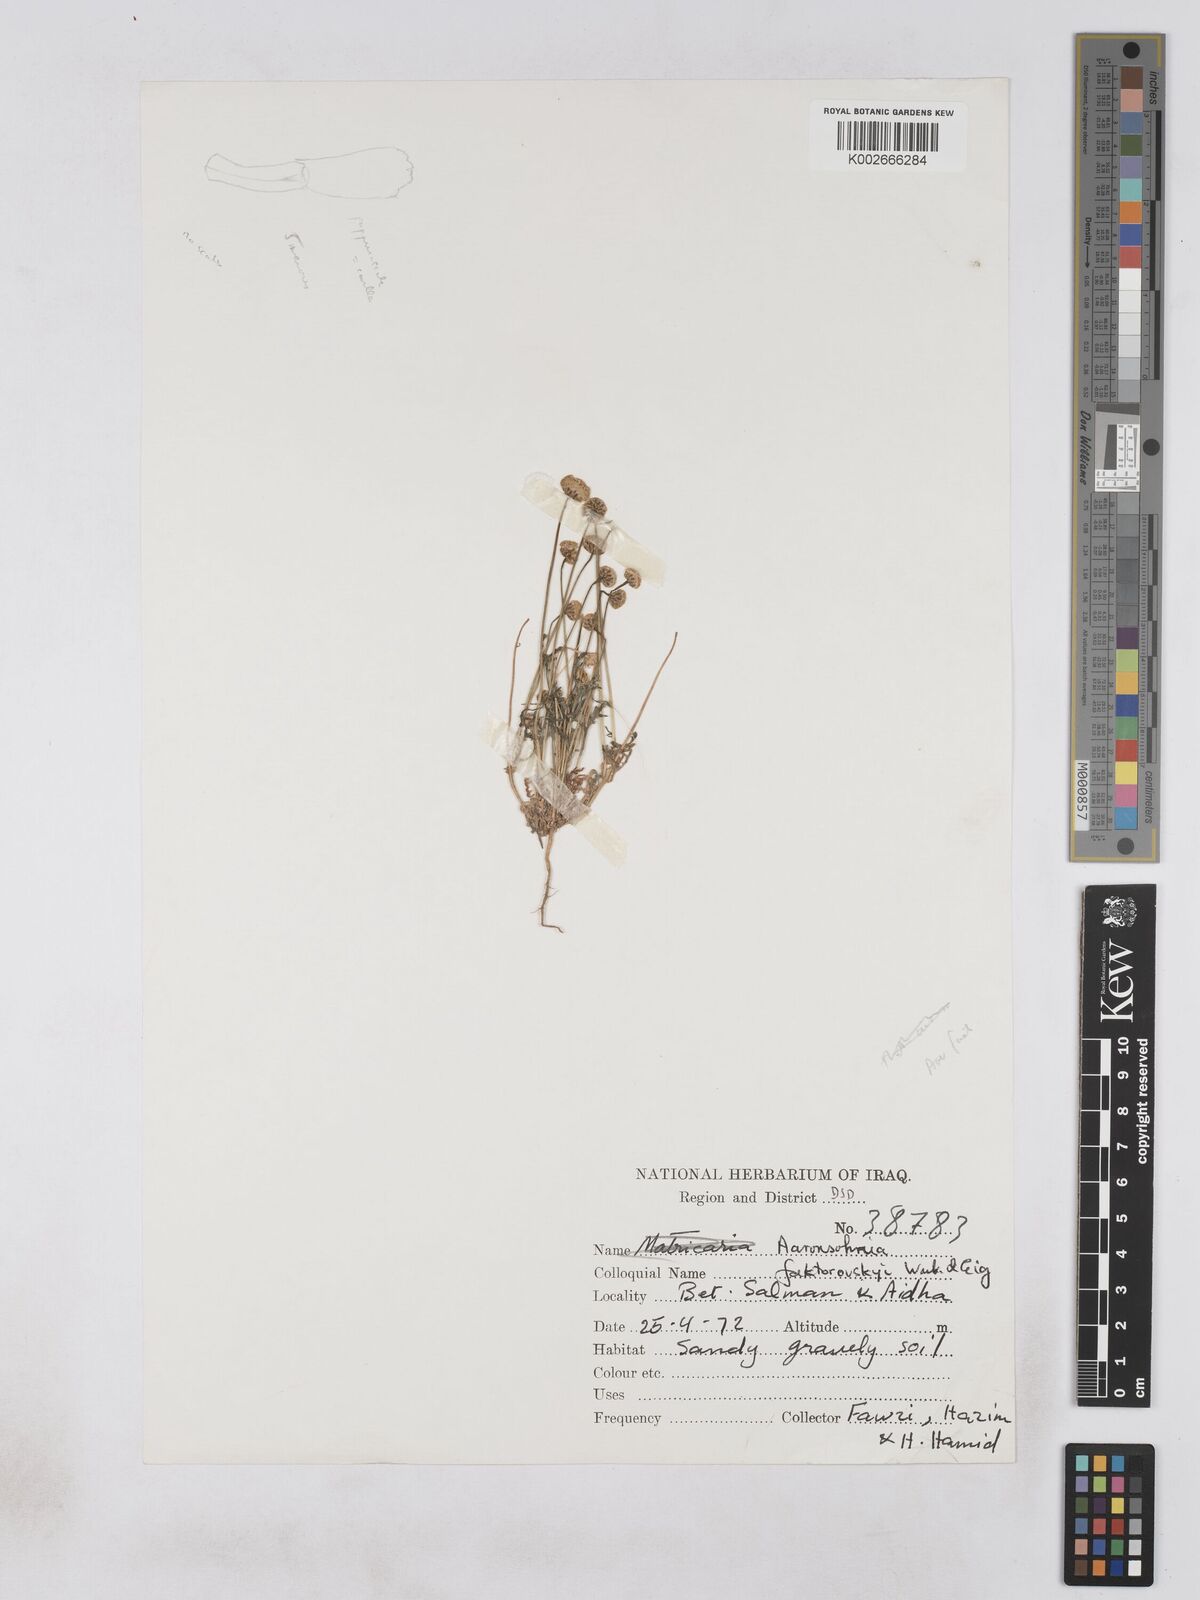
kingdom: Plantae
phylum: Tracheophyta
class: Magnoliopsida
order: Asterales
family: Asteraceae
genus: Otoglyphis
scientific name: Otoglyphis factorovskyi
